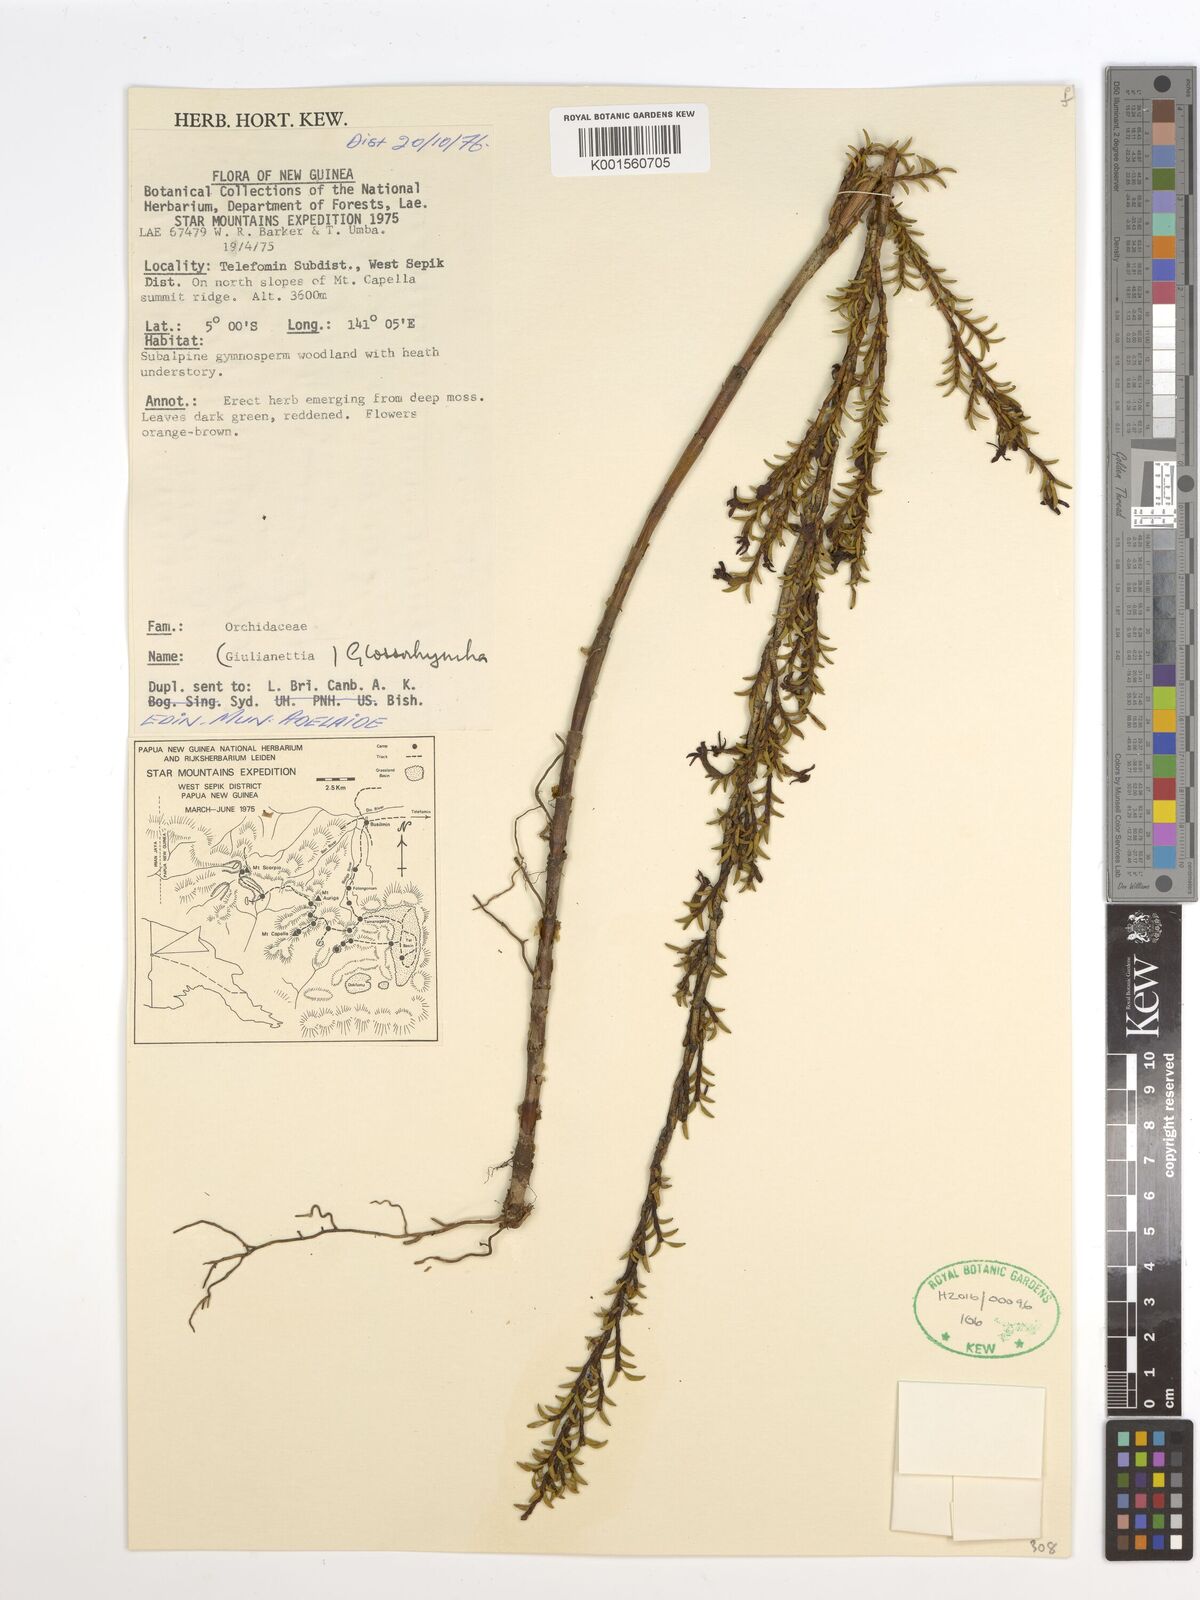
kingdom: Plantae
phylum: Tracheophyta
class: Liliopsida
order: Asparagales
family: Orchidaceae
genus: Glomera
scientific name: Glomera
